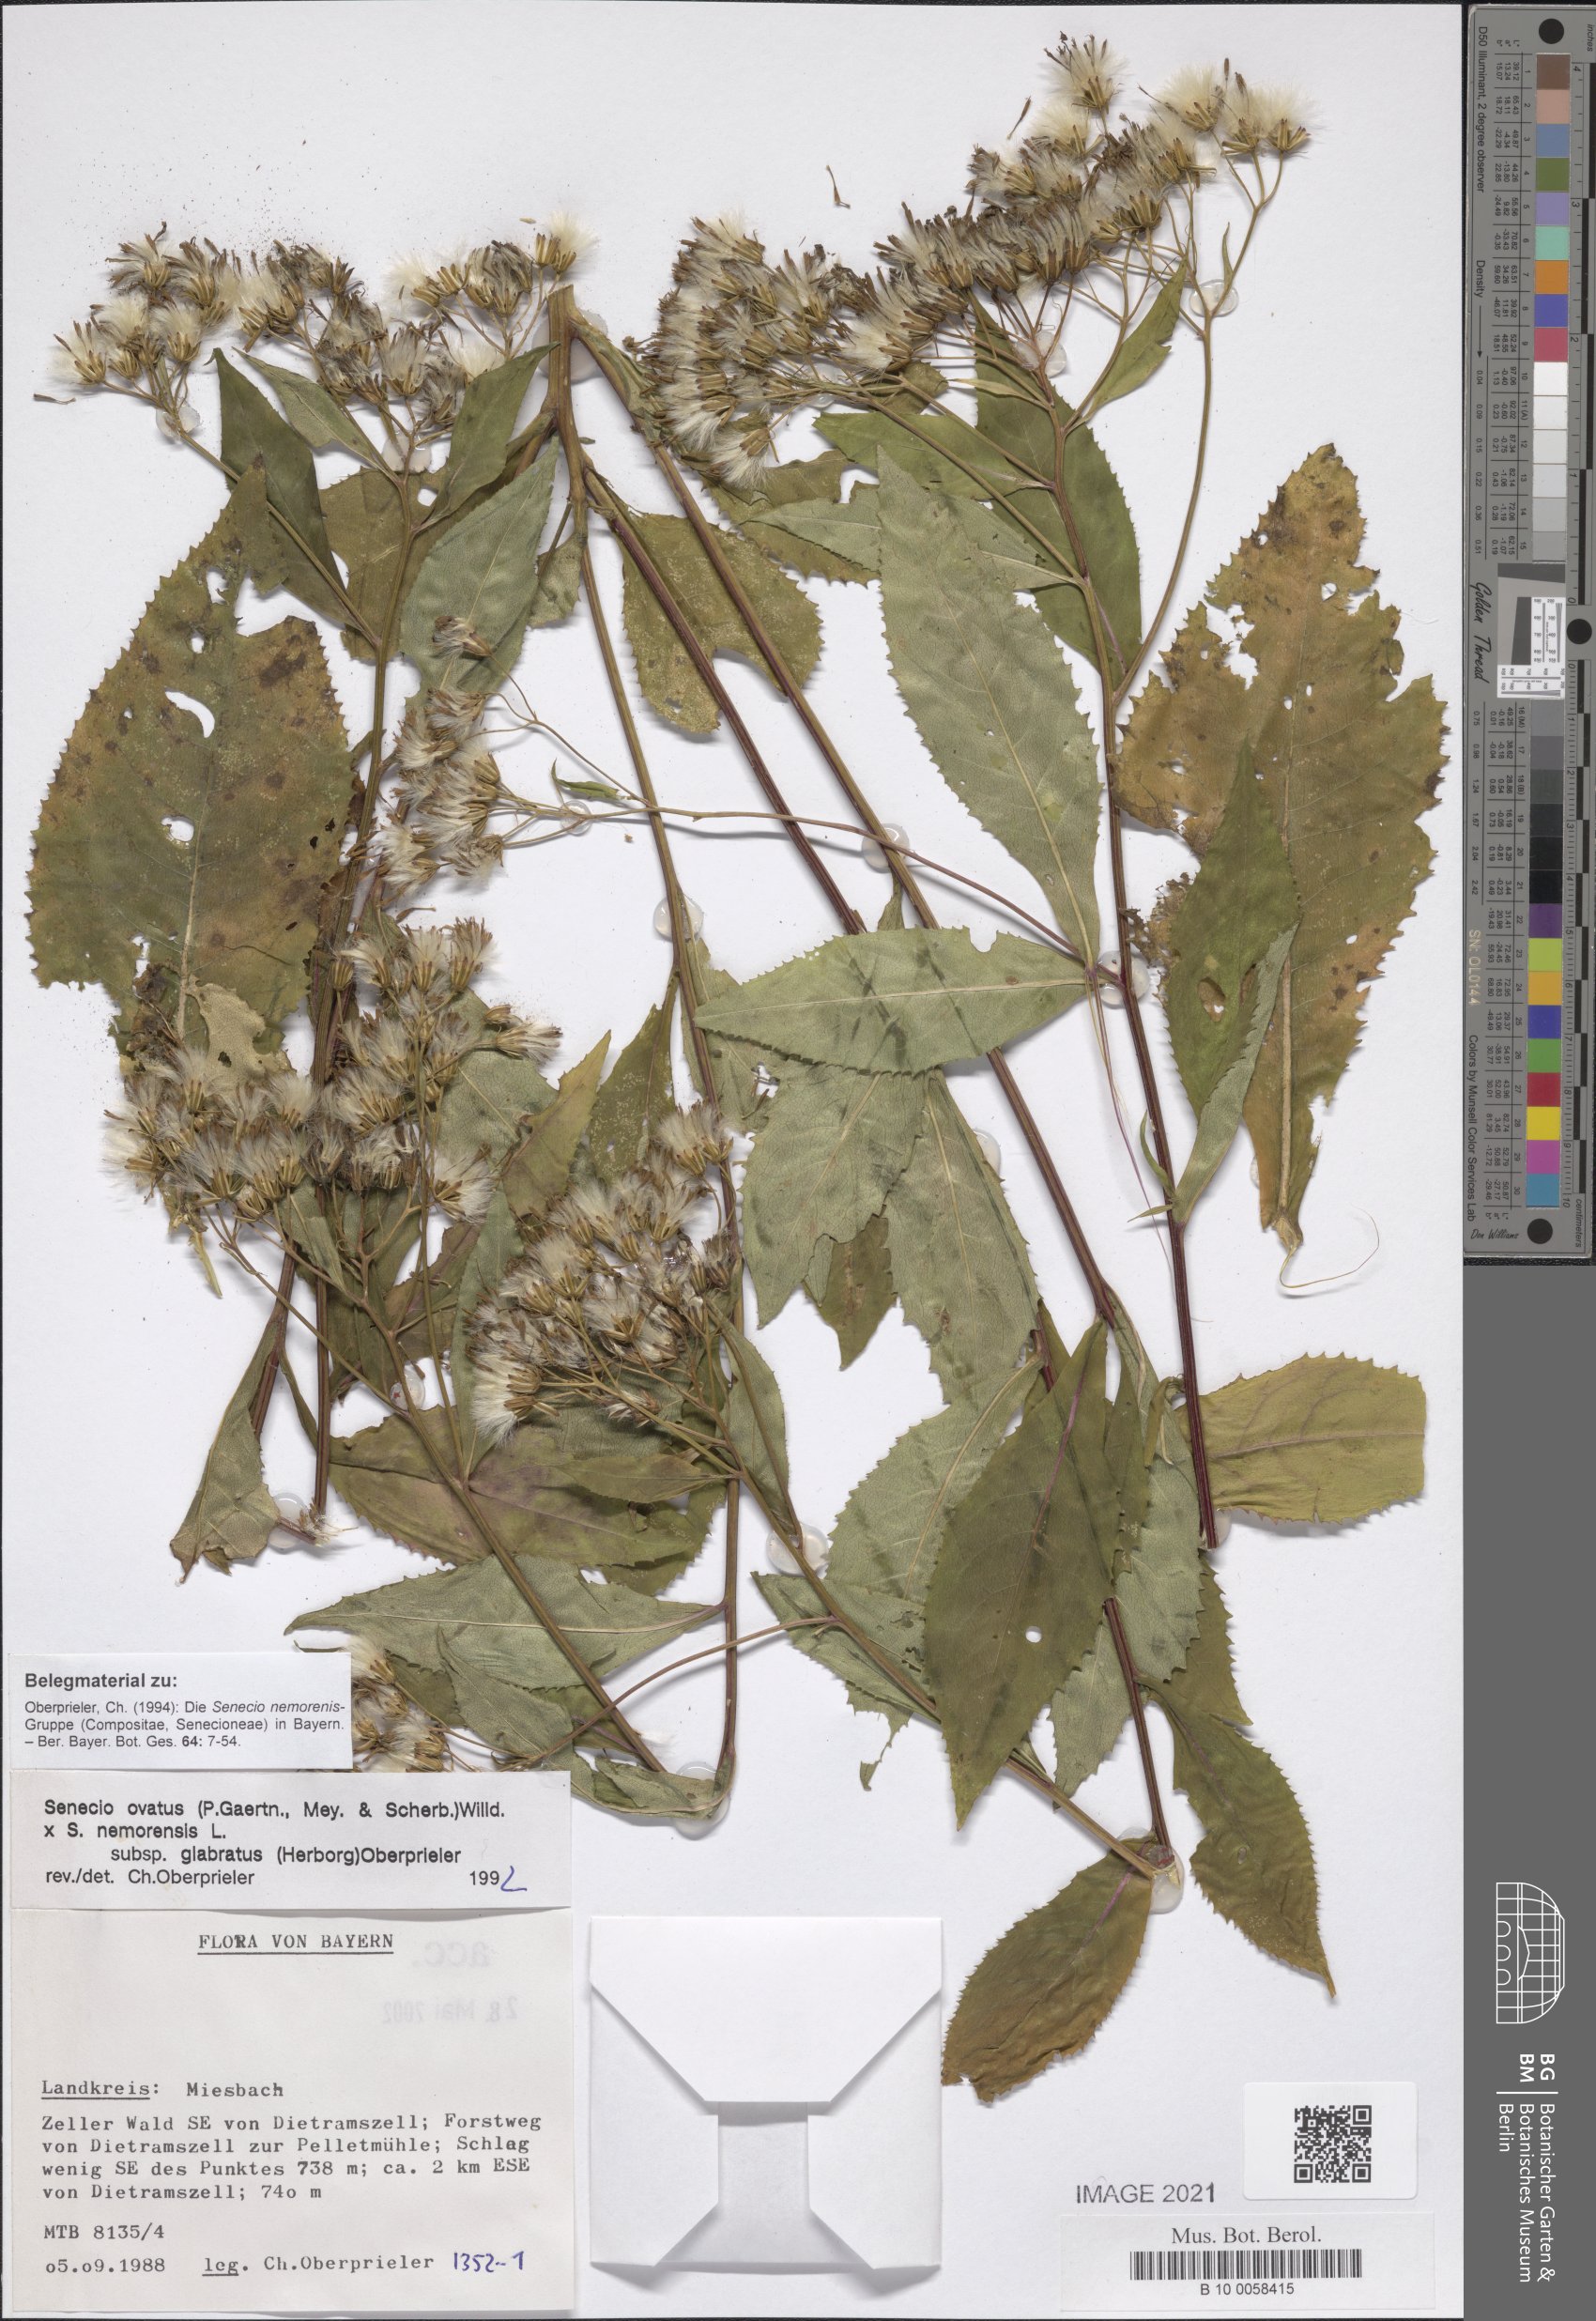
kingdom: Plantae
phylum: Tracheophyta
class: Magnoliopsida
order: Asterales
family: Asteraceae
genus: Senecio
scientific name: Senecio ovatus
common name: Wood ragwort
